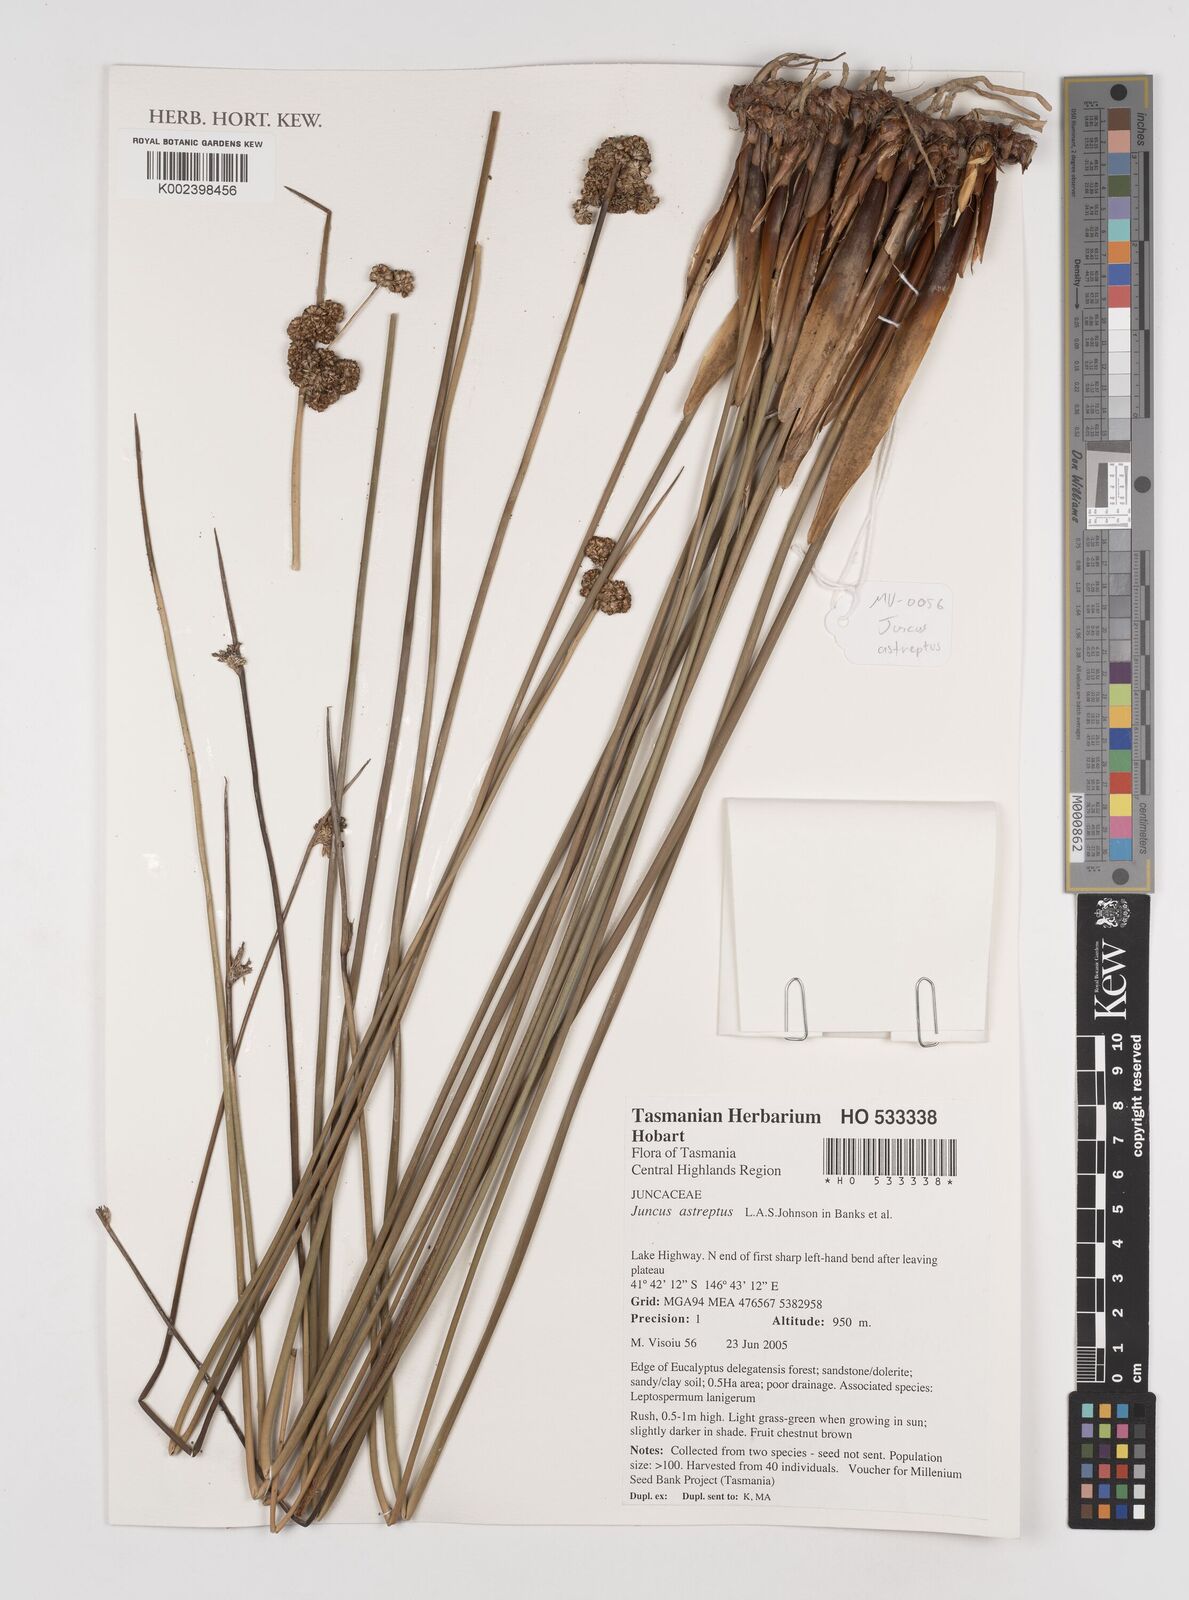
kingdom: Plantae
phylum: Tracheophyta
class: Liliopsida
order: Poales
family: Juncaceae
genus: Juncus
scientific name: Juncus procerus
